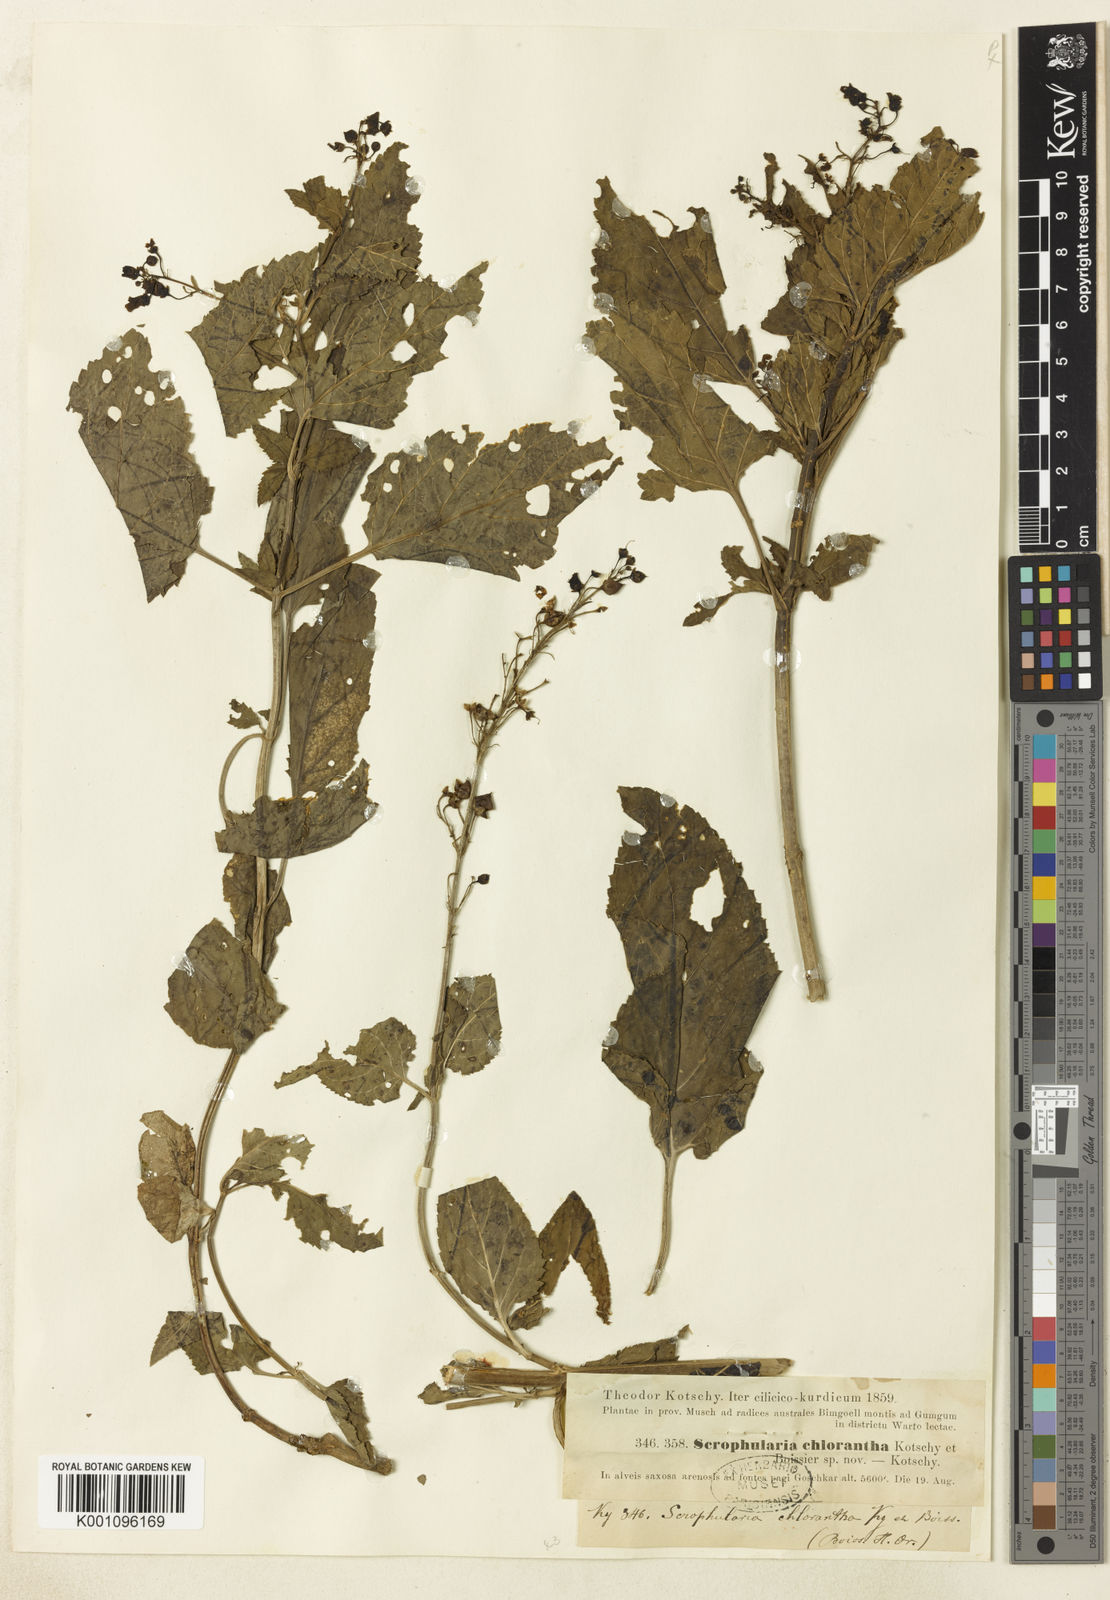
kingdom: Plantae
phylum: Tracheophyta
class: Magnoliopsida
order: Lamiales
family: Scrophulariaceae
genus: Scrophularia
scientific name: Scrophularia chlorantha
